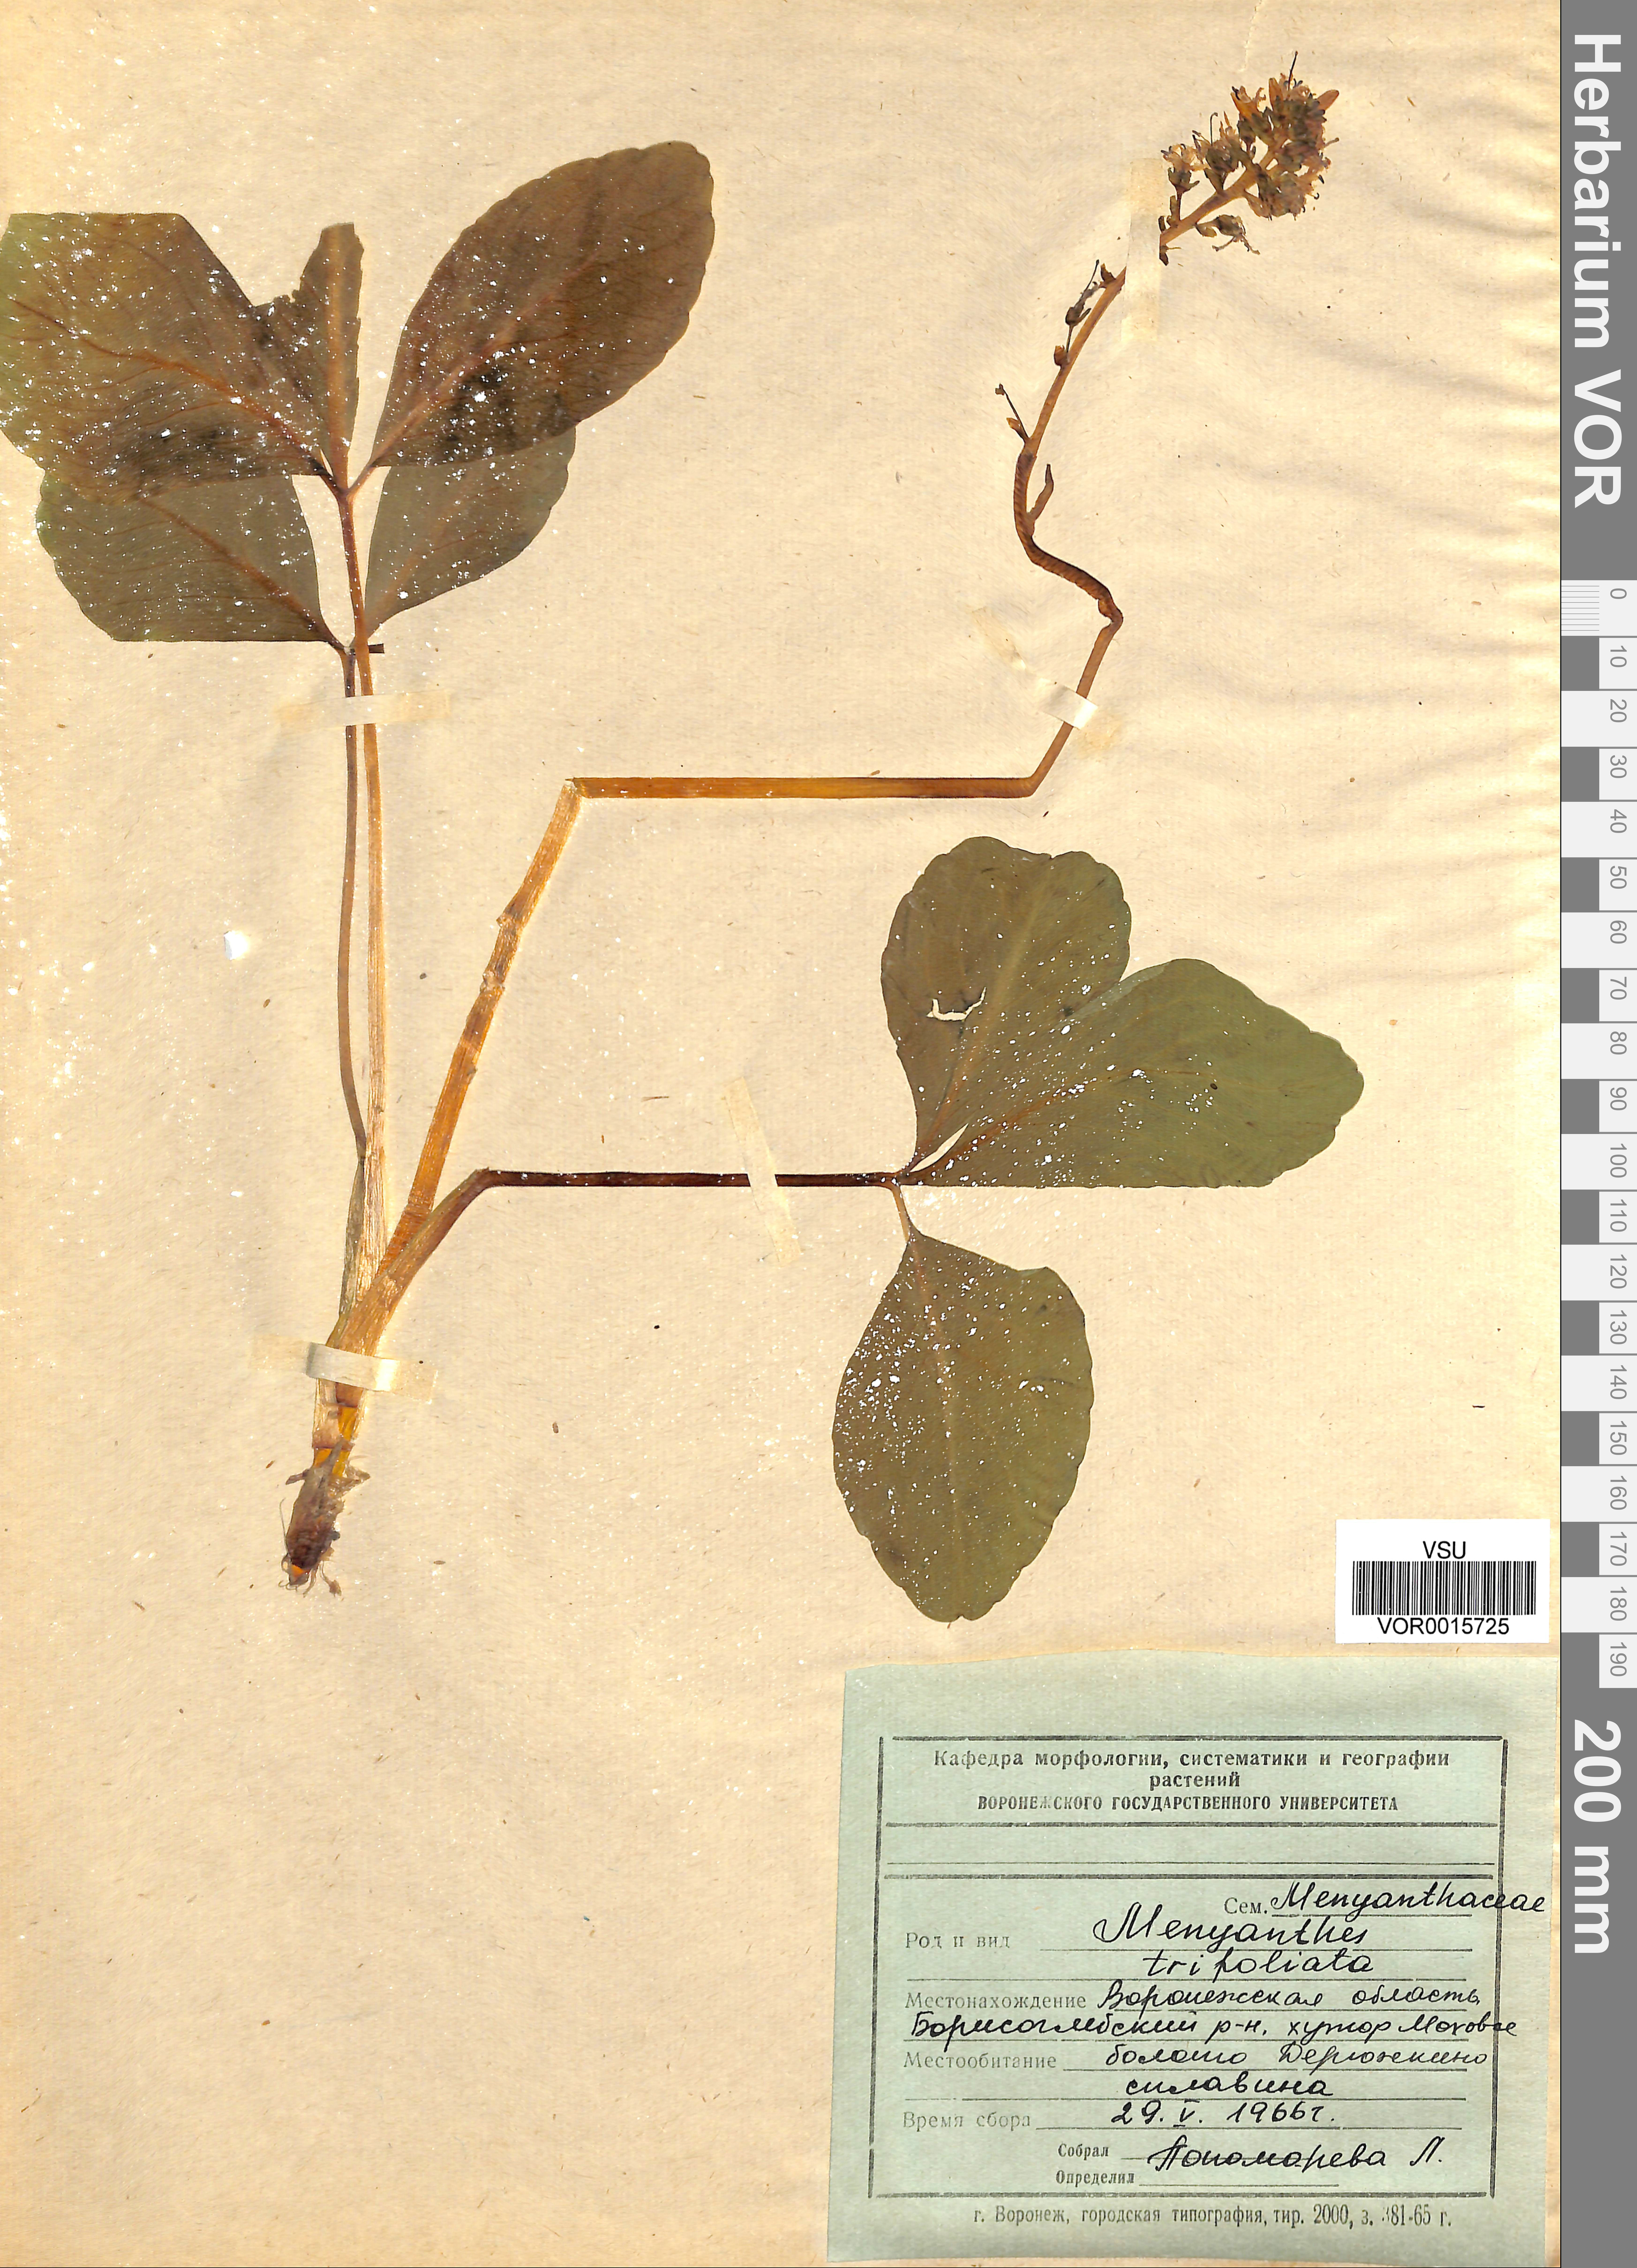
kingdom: Plantae
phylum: Tracheophyta
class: Magnoliopsida
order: Asterales
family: Menyanthaceae
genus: Menyanthes
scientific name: Menyanthes trifoliata
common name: Bogbean
